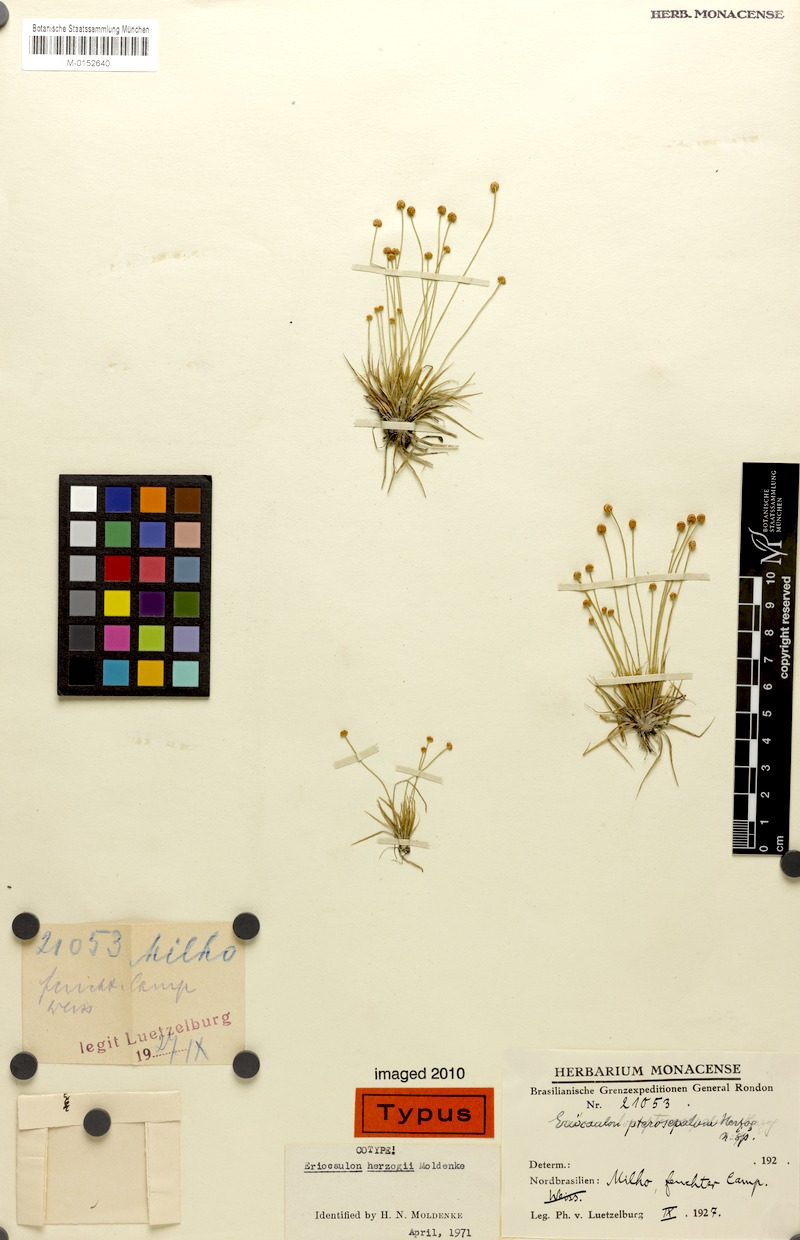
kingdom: Plantae
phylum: Tracheophyta
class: Liliopsida
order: Poales
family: Eriocaulaceae
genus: Eriocaulon
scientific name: Eriocaulon herzogii
